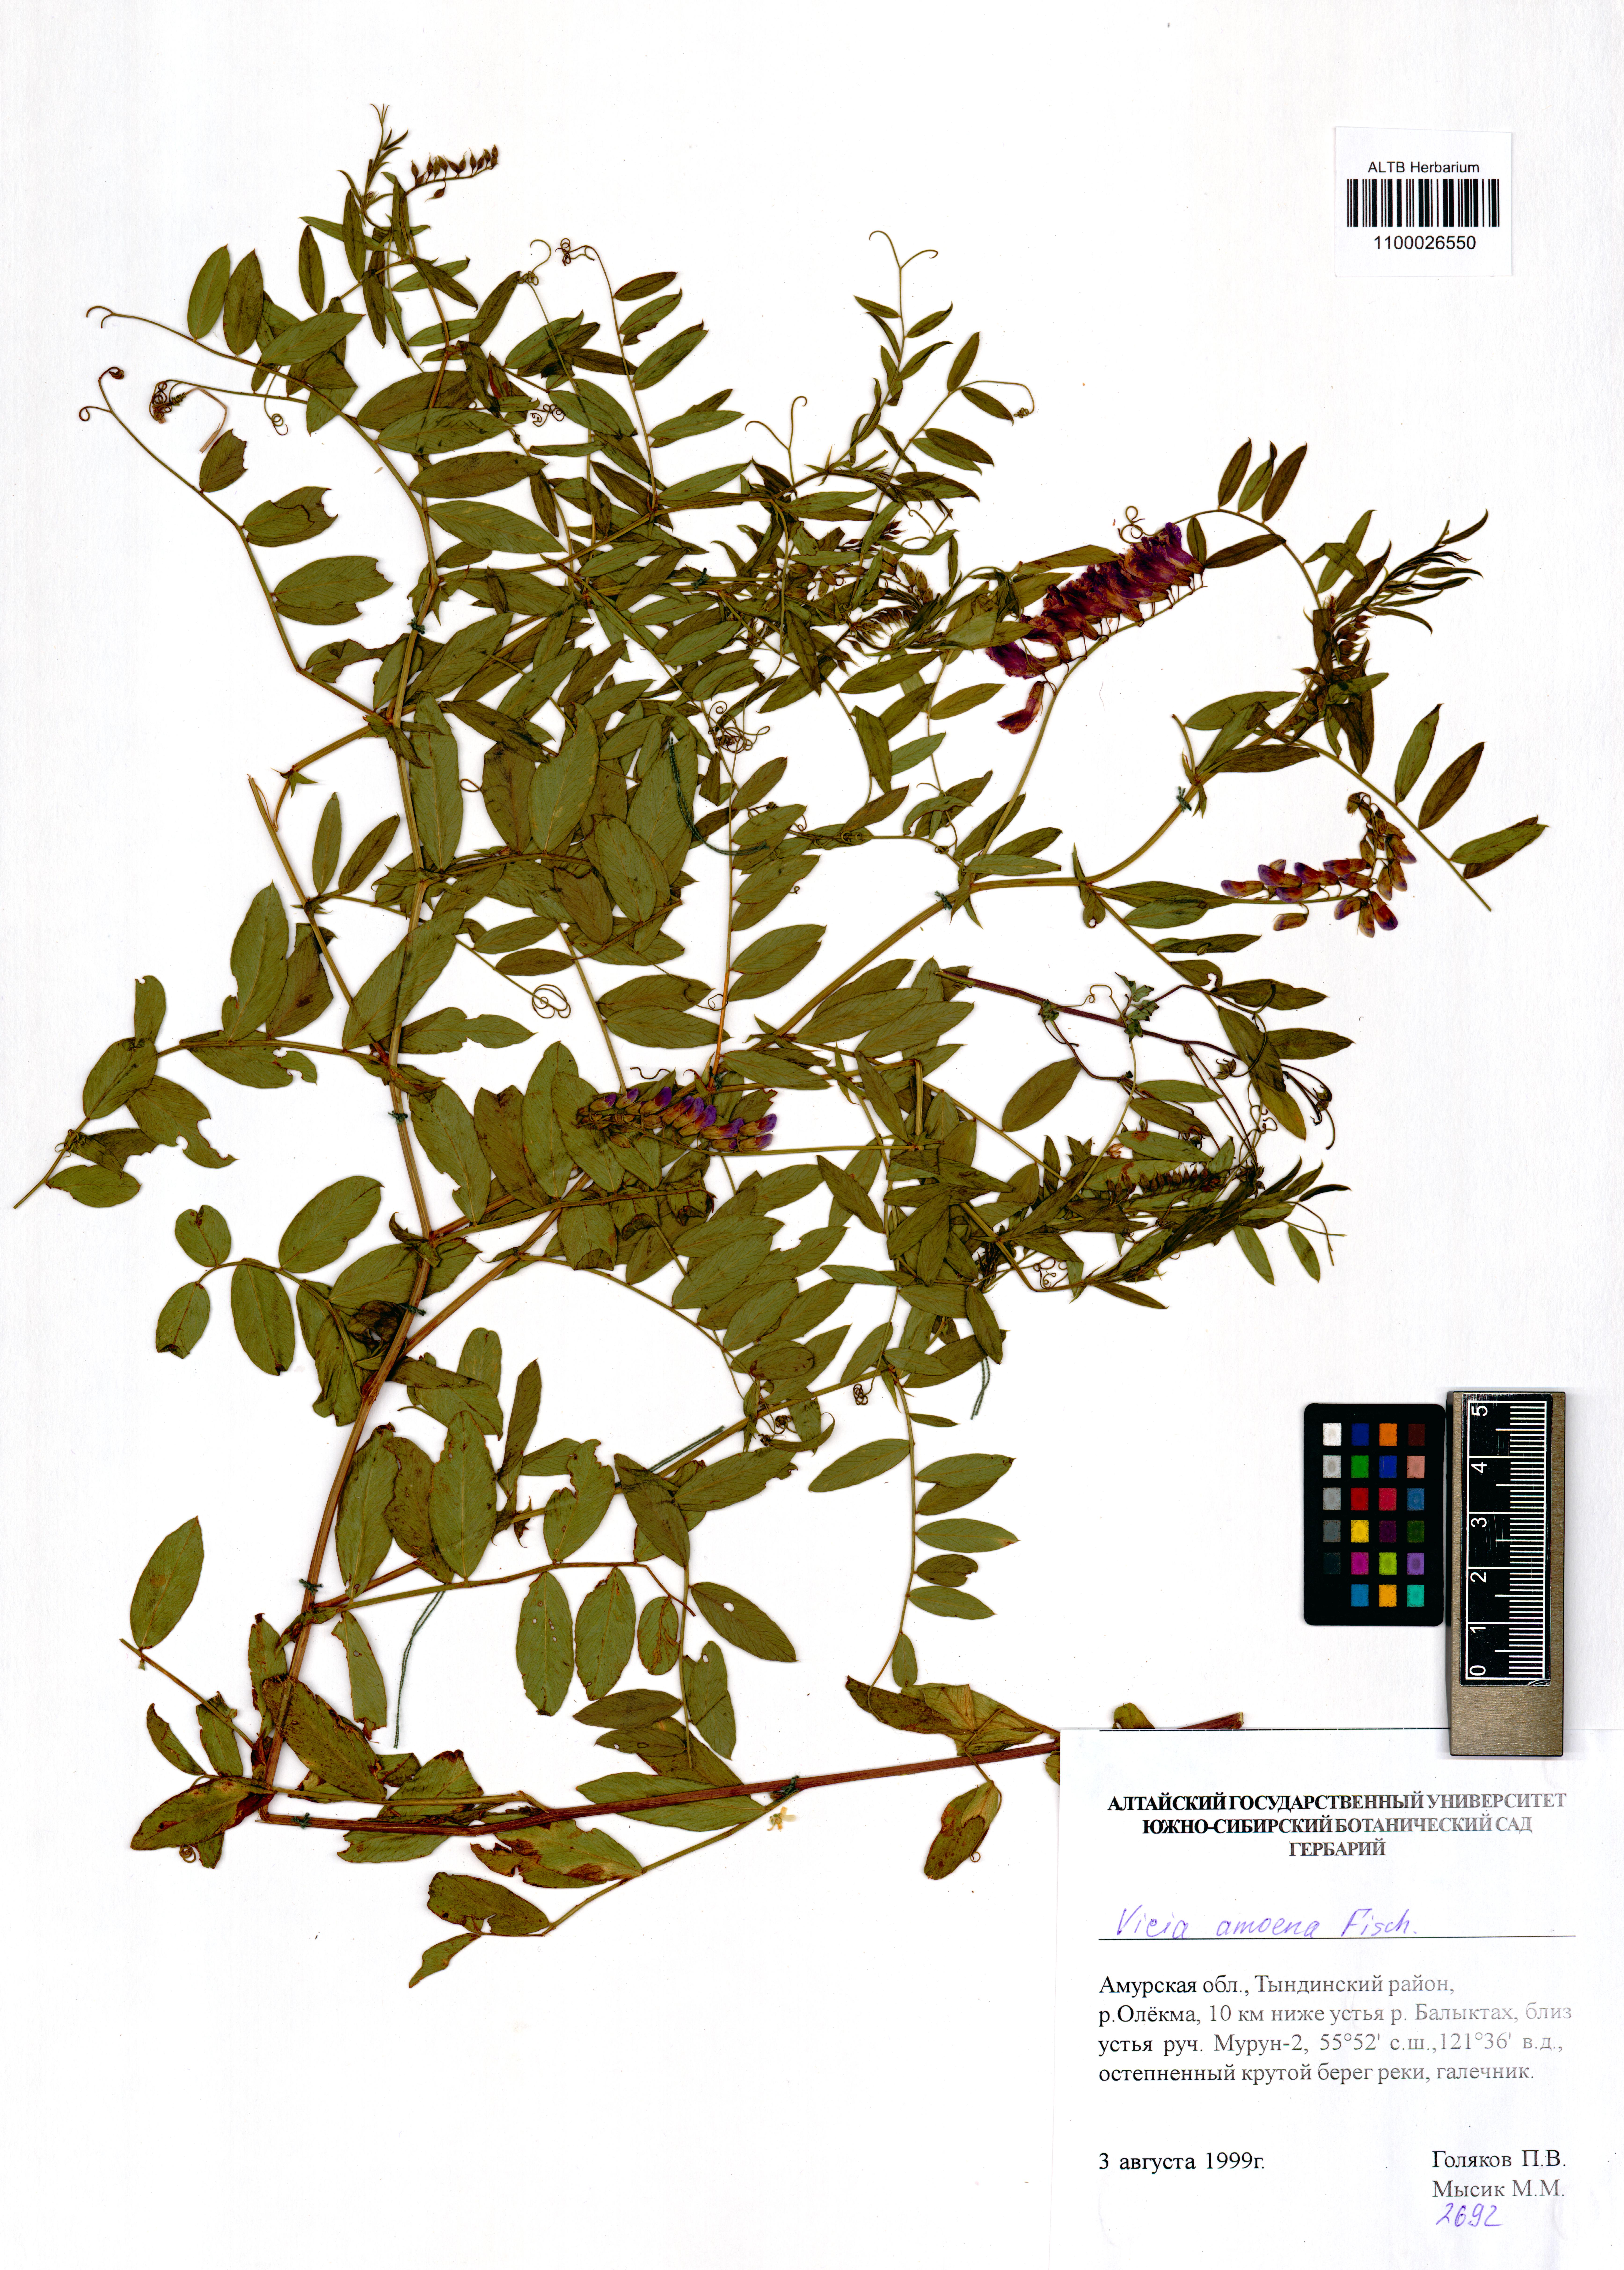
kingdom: Plantae
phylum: Tracheophyta
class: Magnoliopsida
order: Fabales
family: Fabaceae
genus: Vicia
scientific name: Vicia amoena
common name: Cheder ebs
